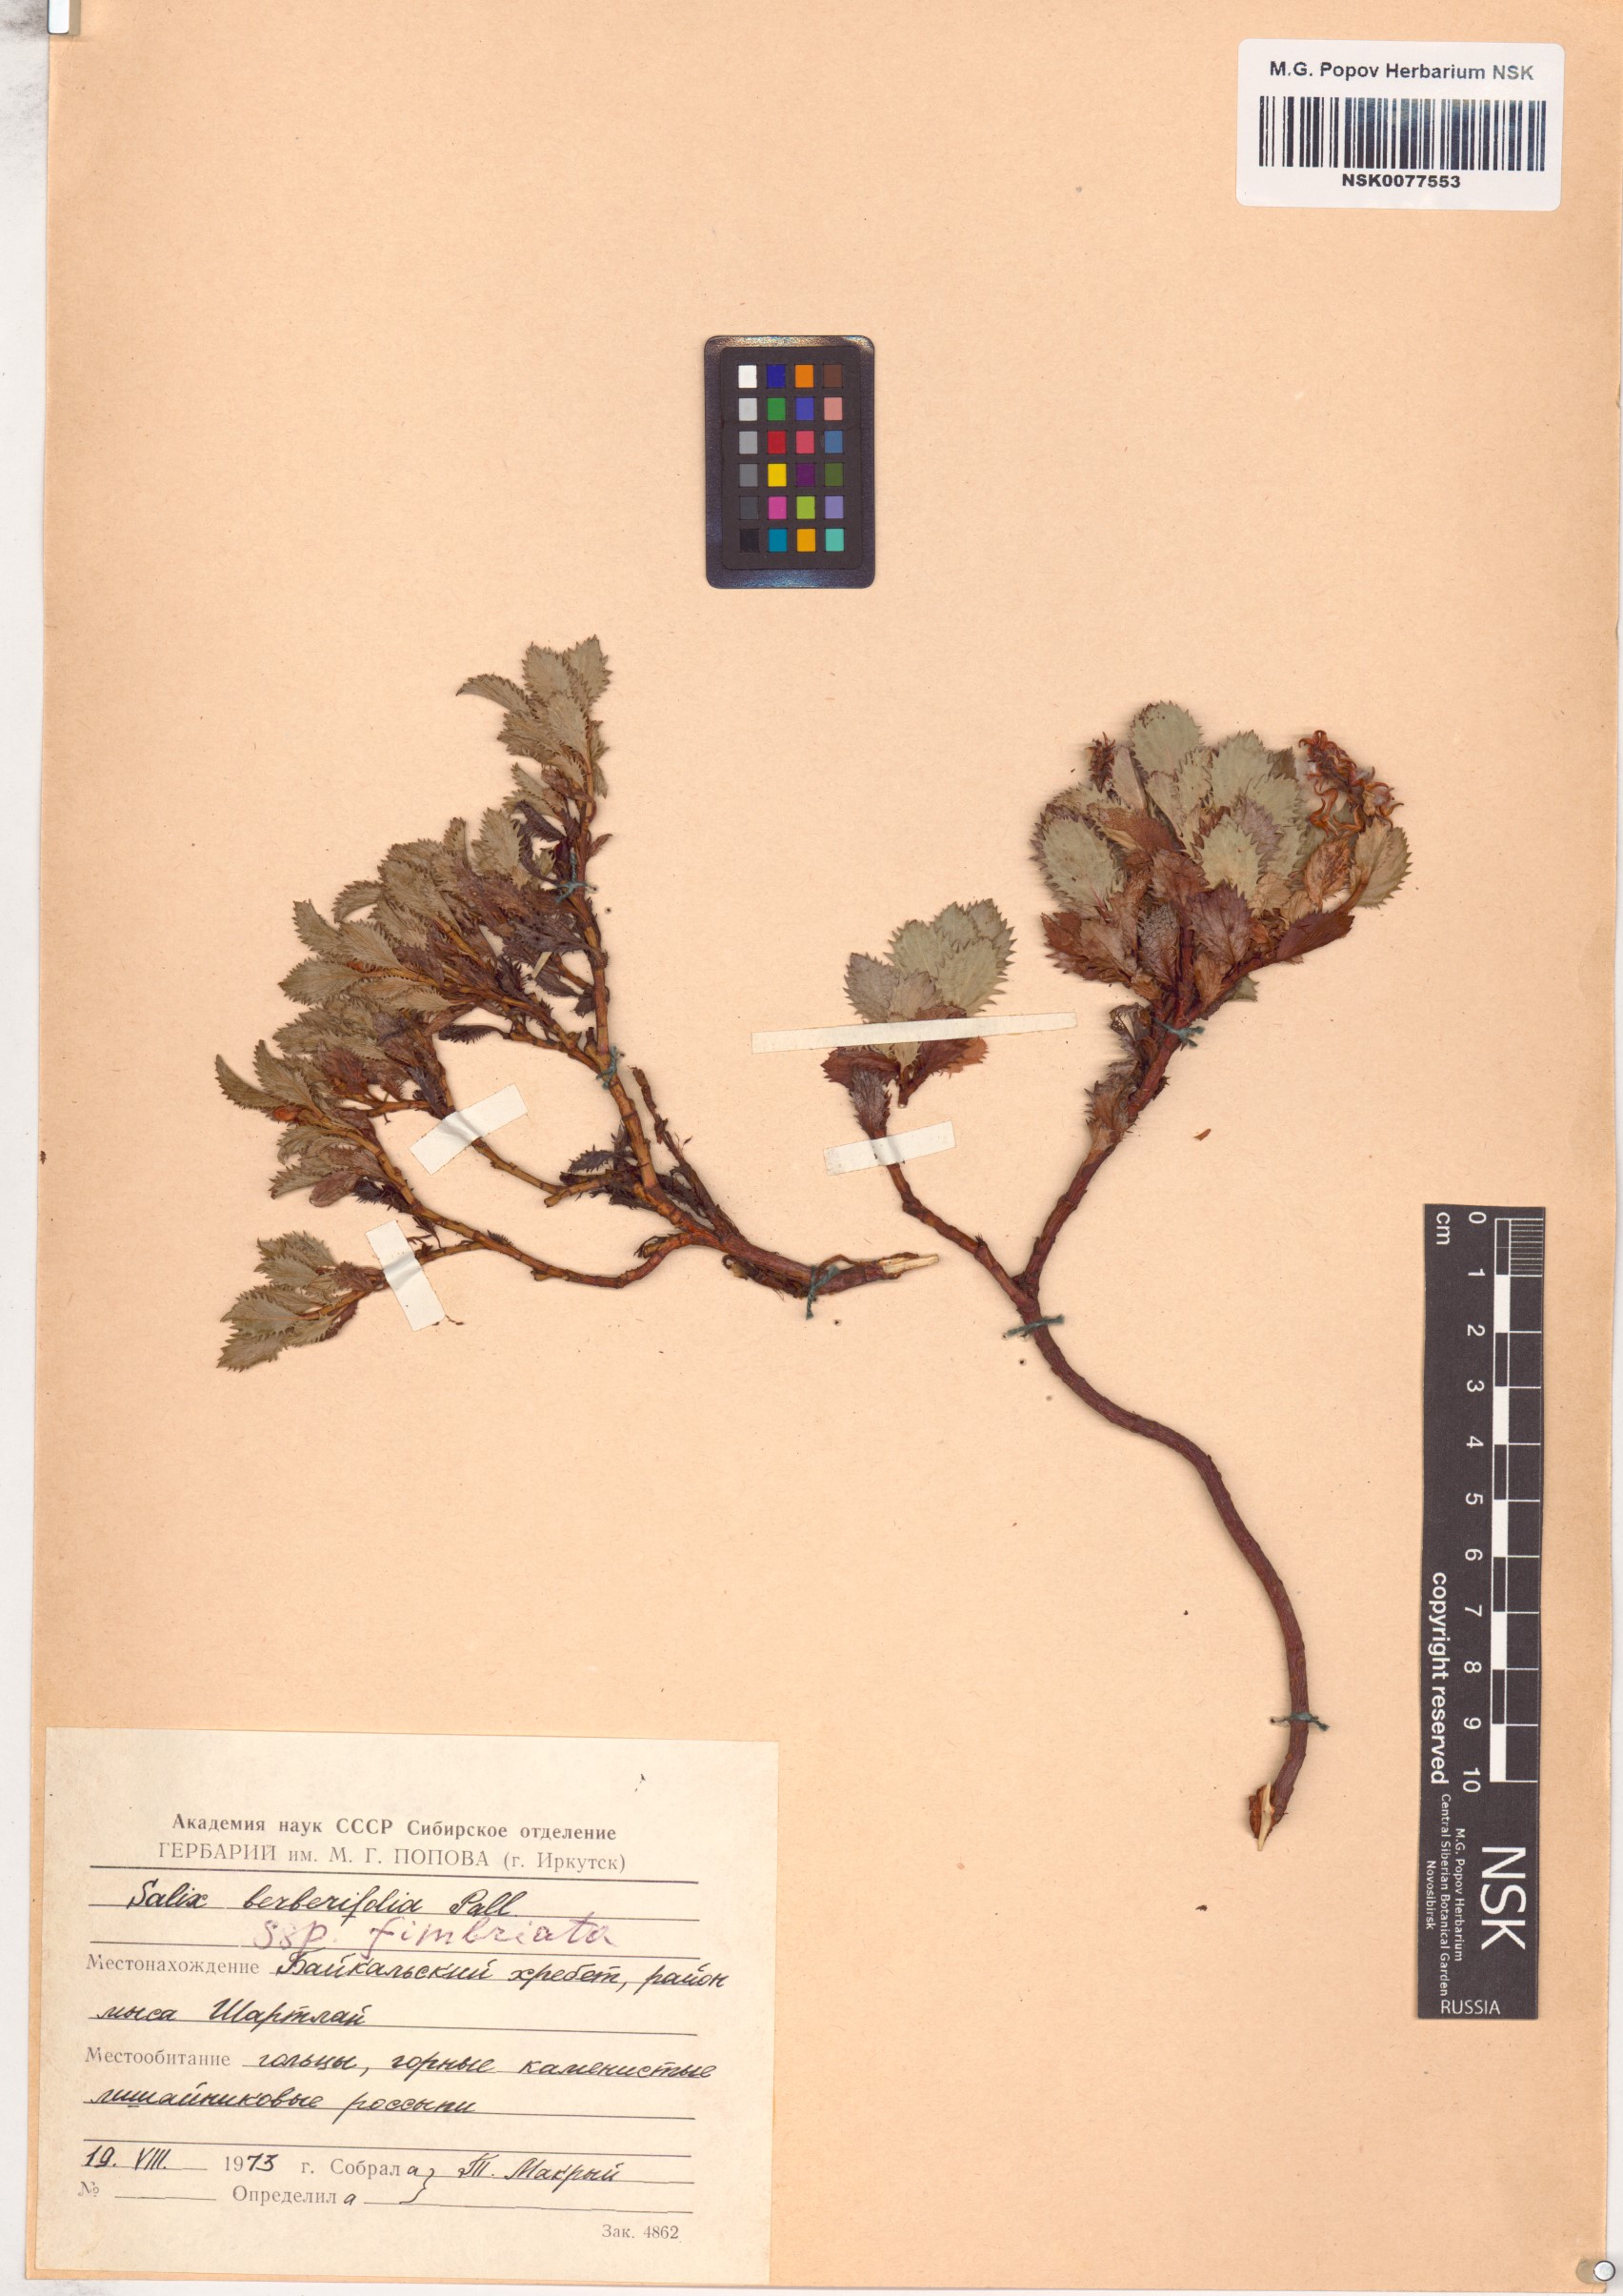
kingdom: Plantae
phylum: Tracheophyta
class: Magnoliopsida
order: Malpighiales
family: Salicaceae
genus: Salix
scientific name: Salix berberifolia
